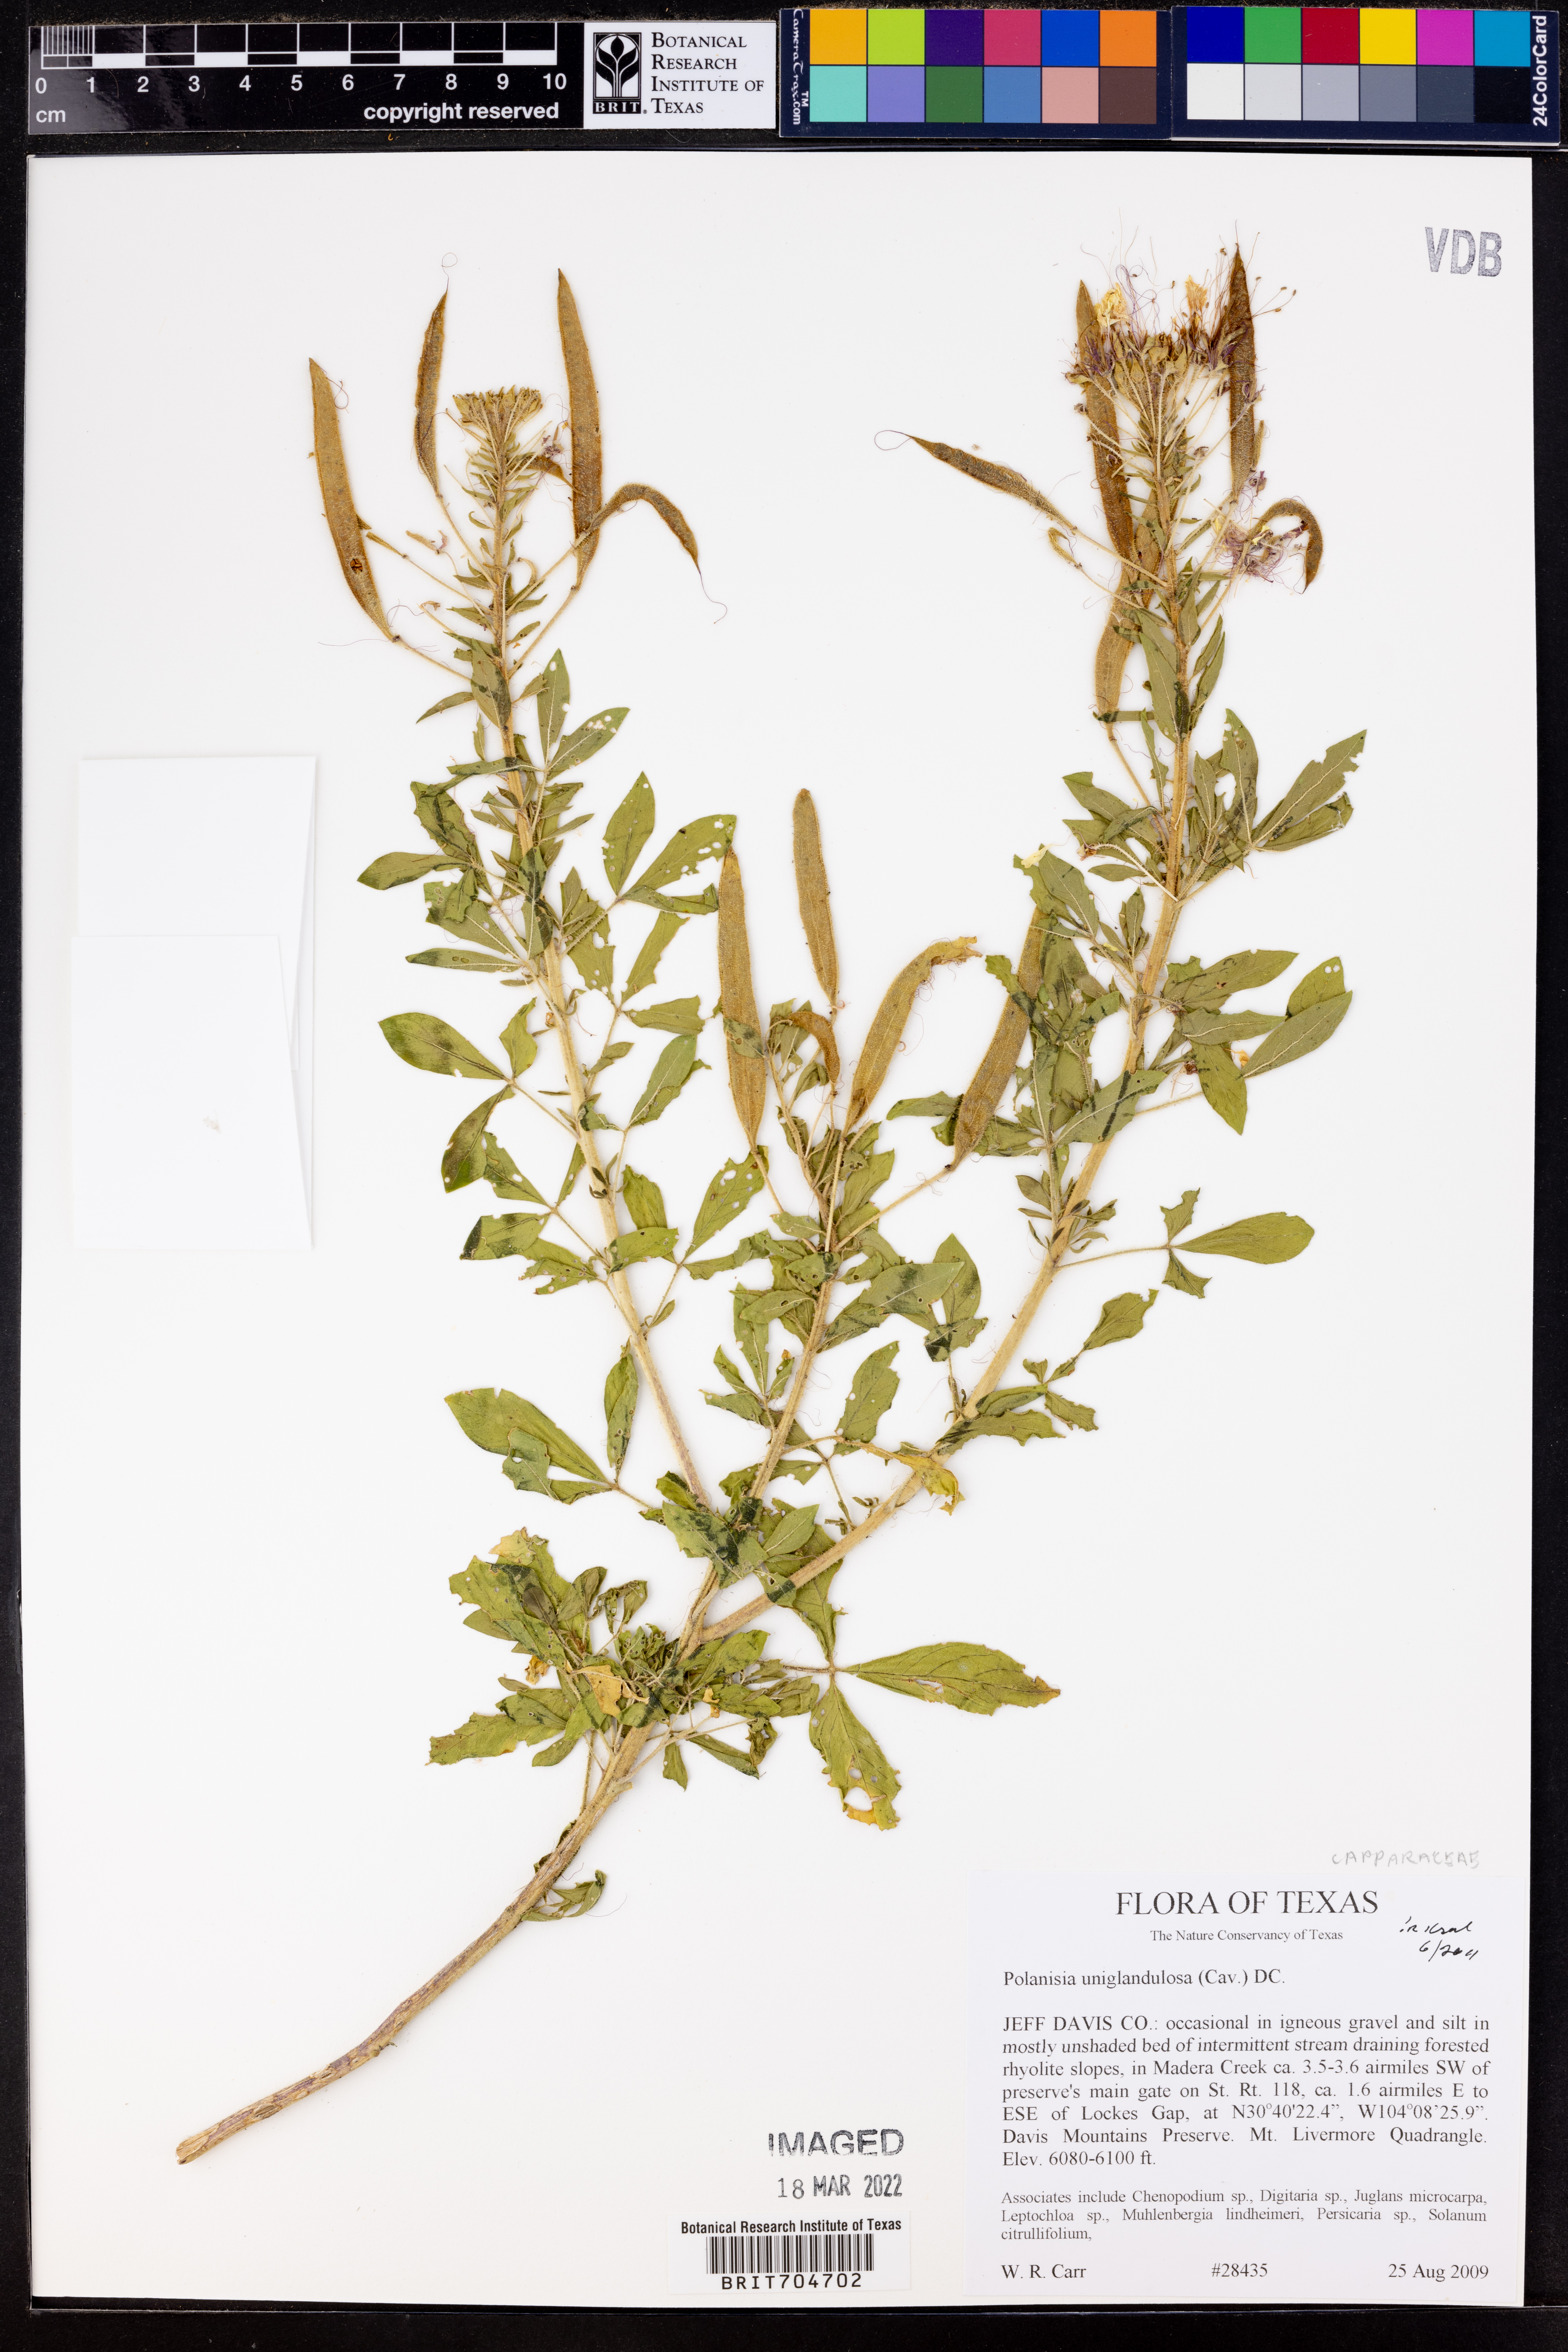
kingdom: Plantae
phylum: Tracheophyta
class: Magnoliopsida
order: Brassicales
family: Cleomaceae
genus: Polanisia
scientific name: Polanisia uniglandulosa
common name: Mexican clammyweed
